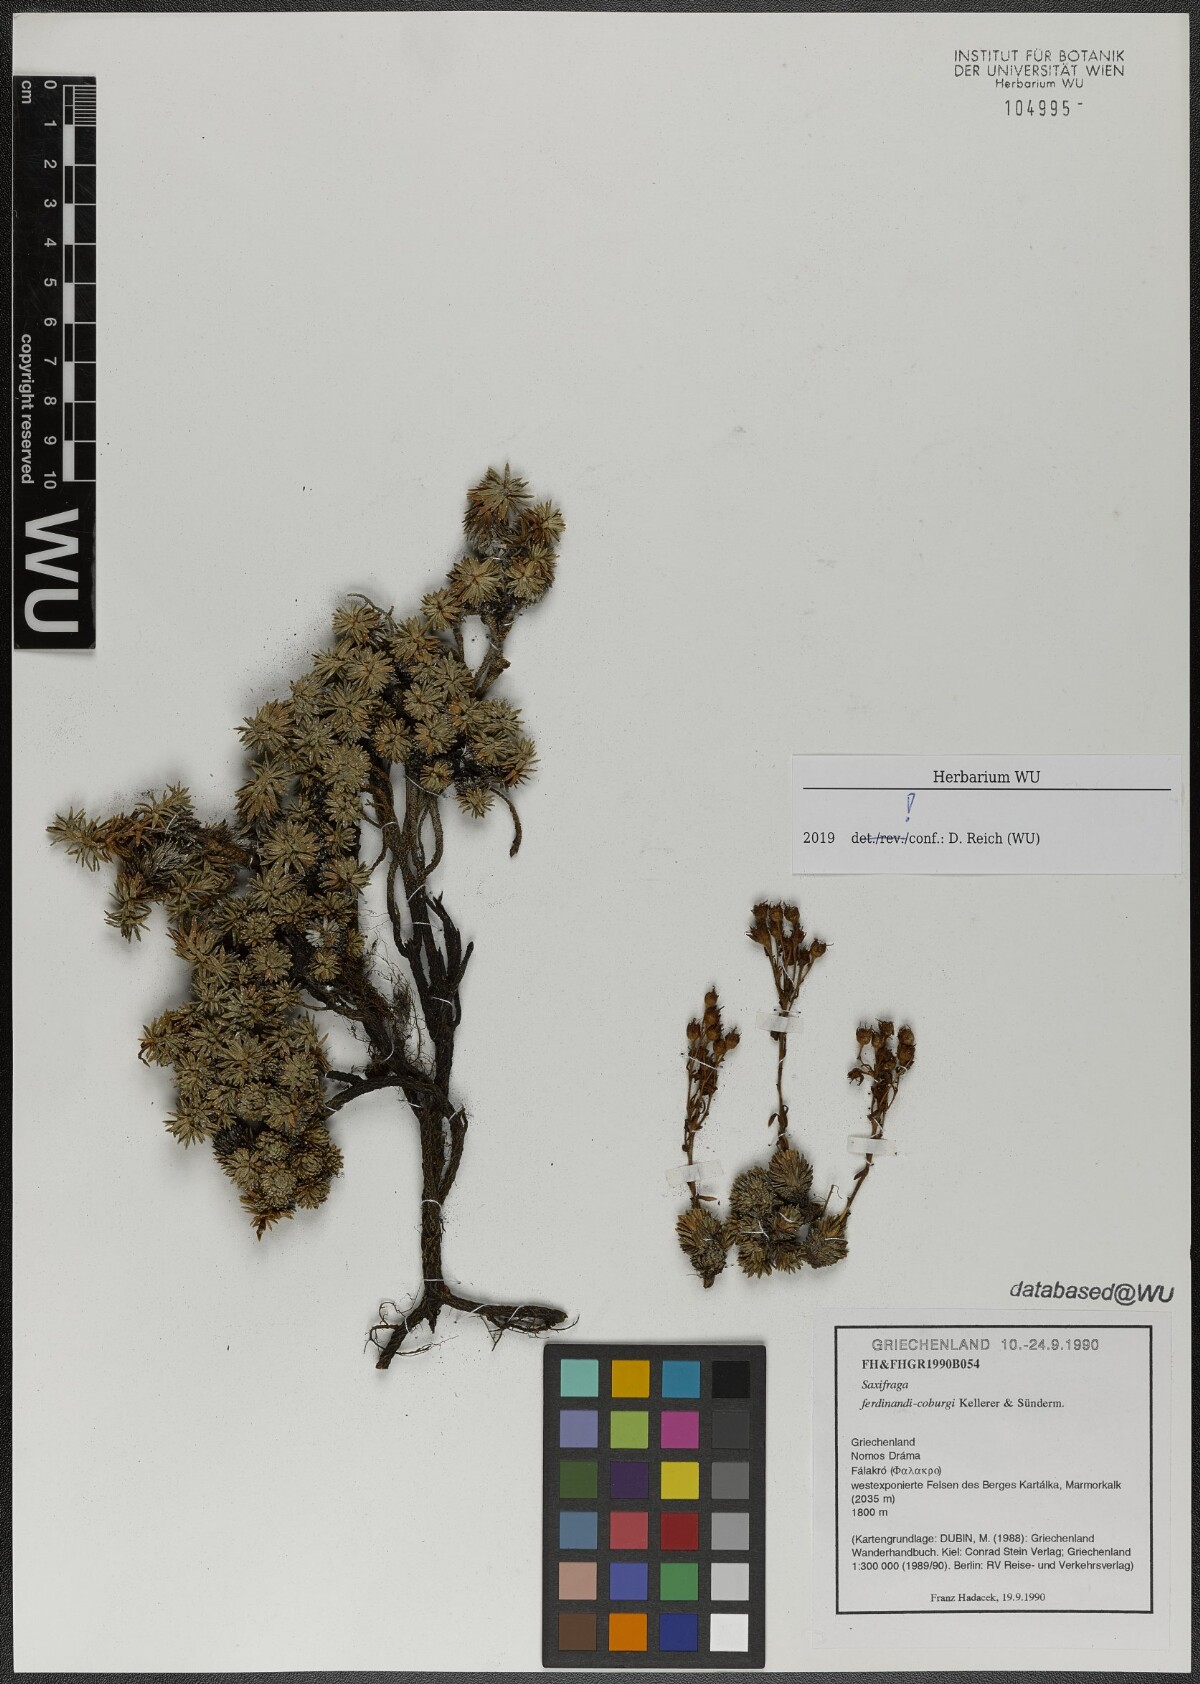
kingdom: Plantae
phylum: Tracheophyta
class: Magnoliopsida
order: Saxifragales
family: Saxifragaceae
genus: Saxifraga
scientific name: Saxifraga ferdinandi-coburgi
